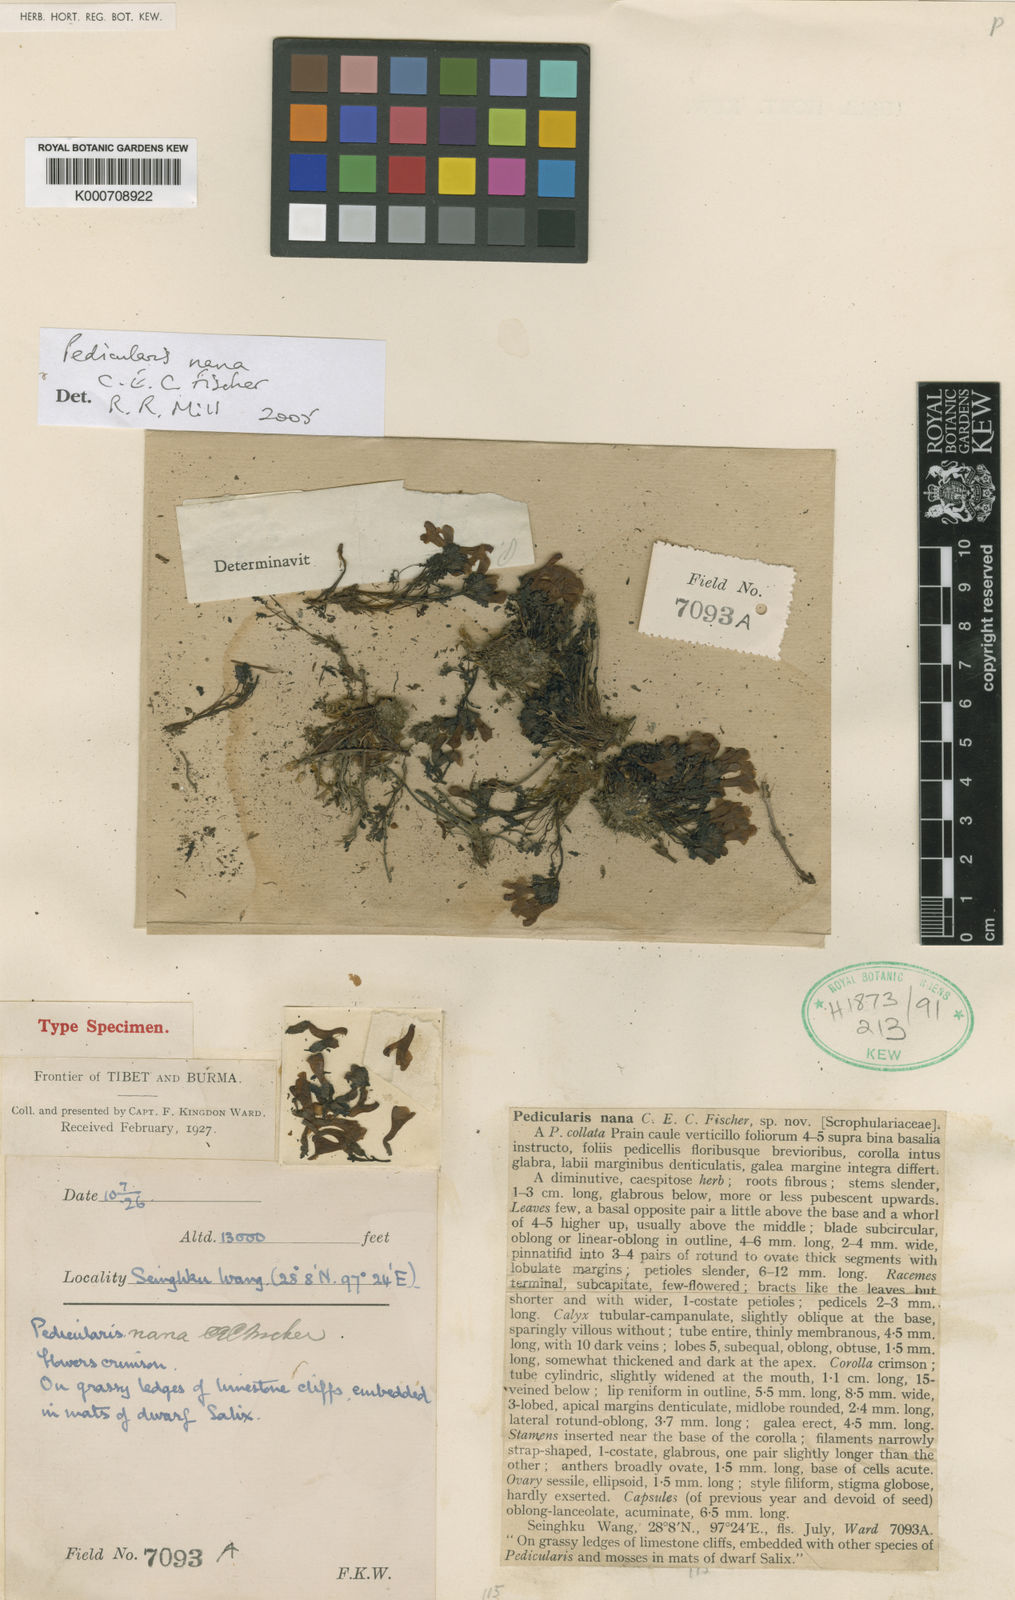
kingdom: Plantae
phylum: Tracheophyta
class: Magnoliopsida
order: Lamiales
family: Orobanchaceae
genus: Pedicularis
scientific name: Pedicularis nana
